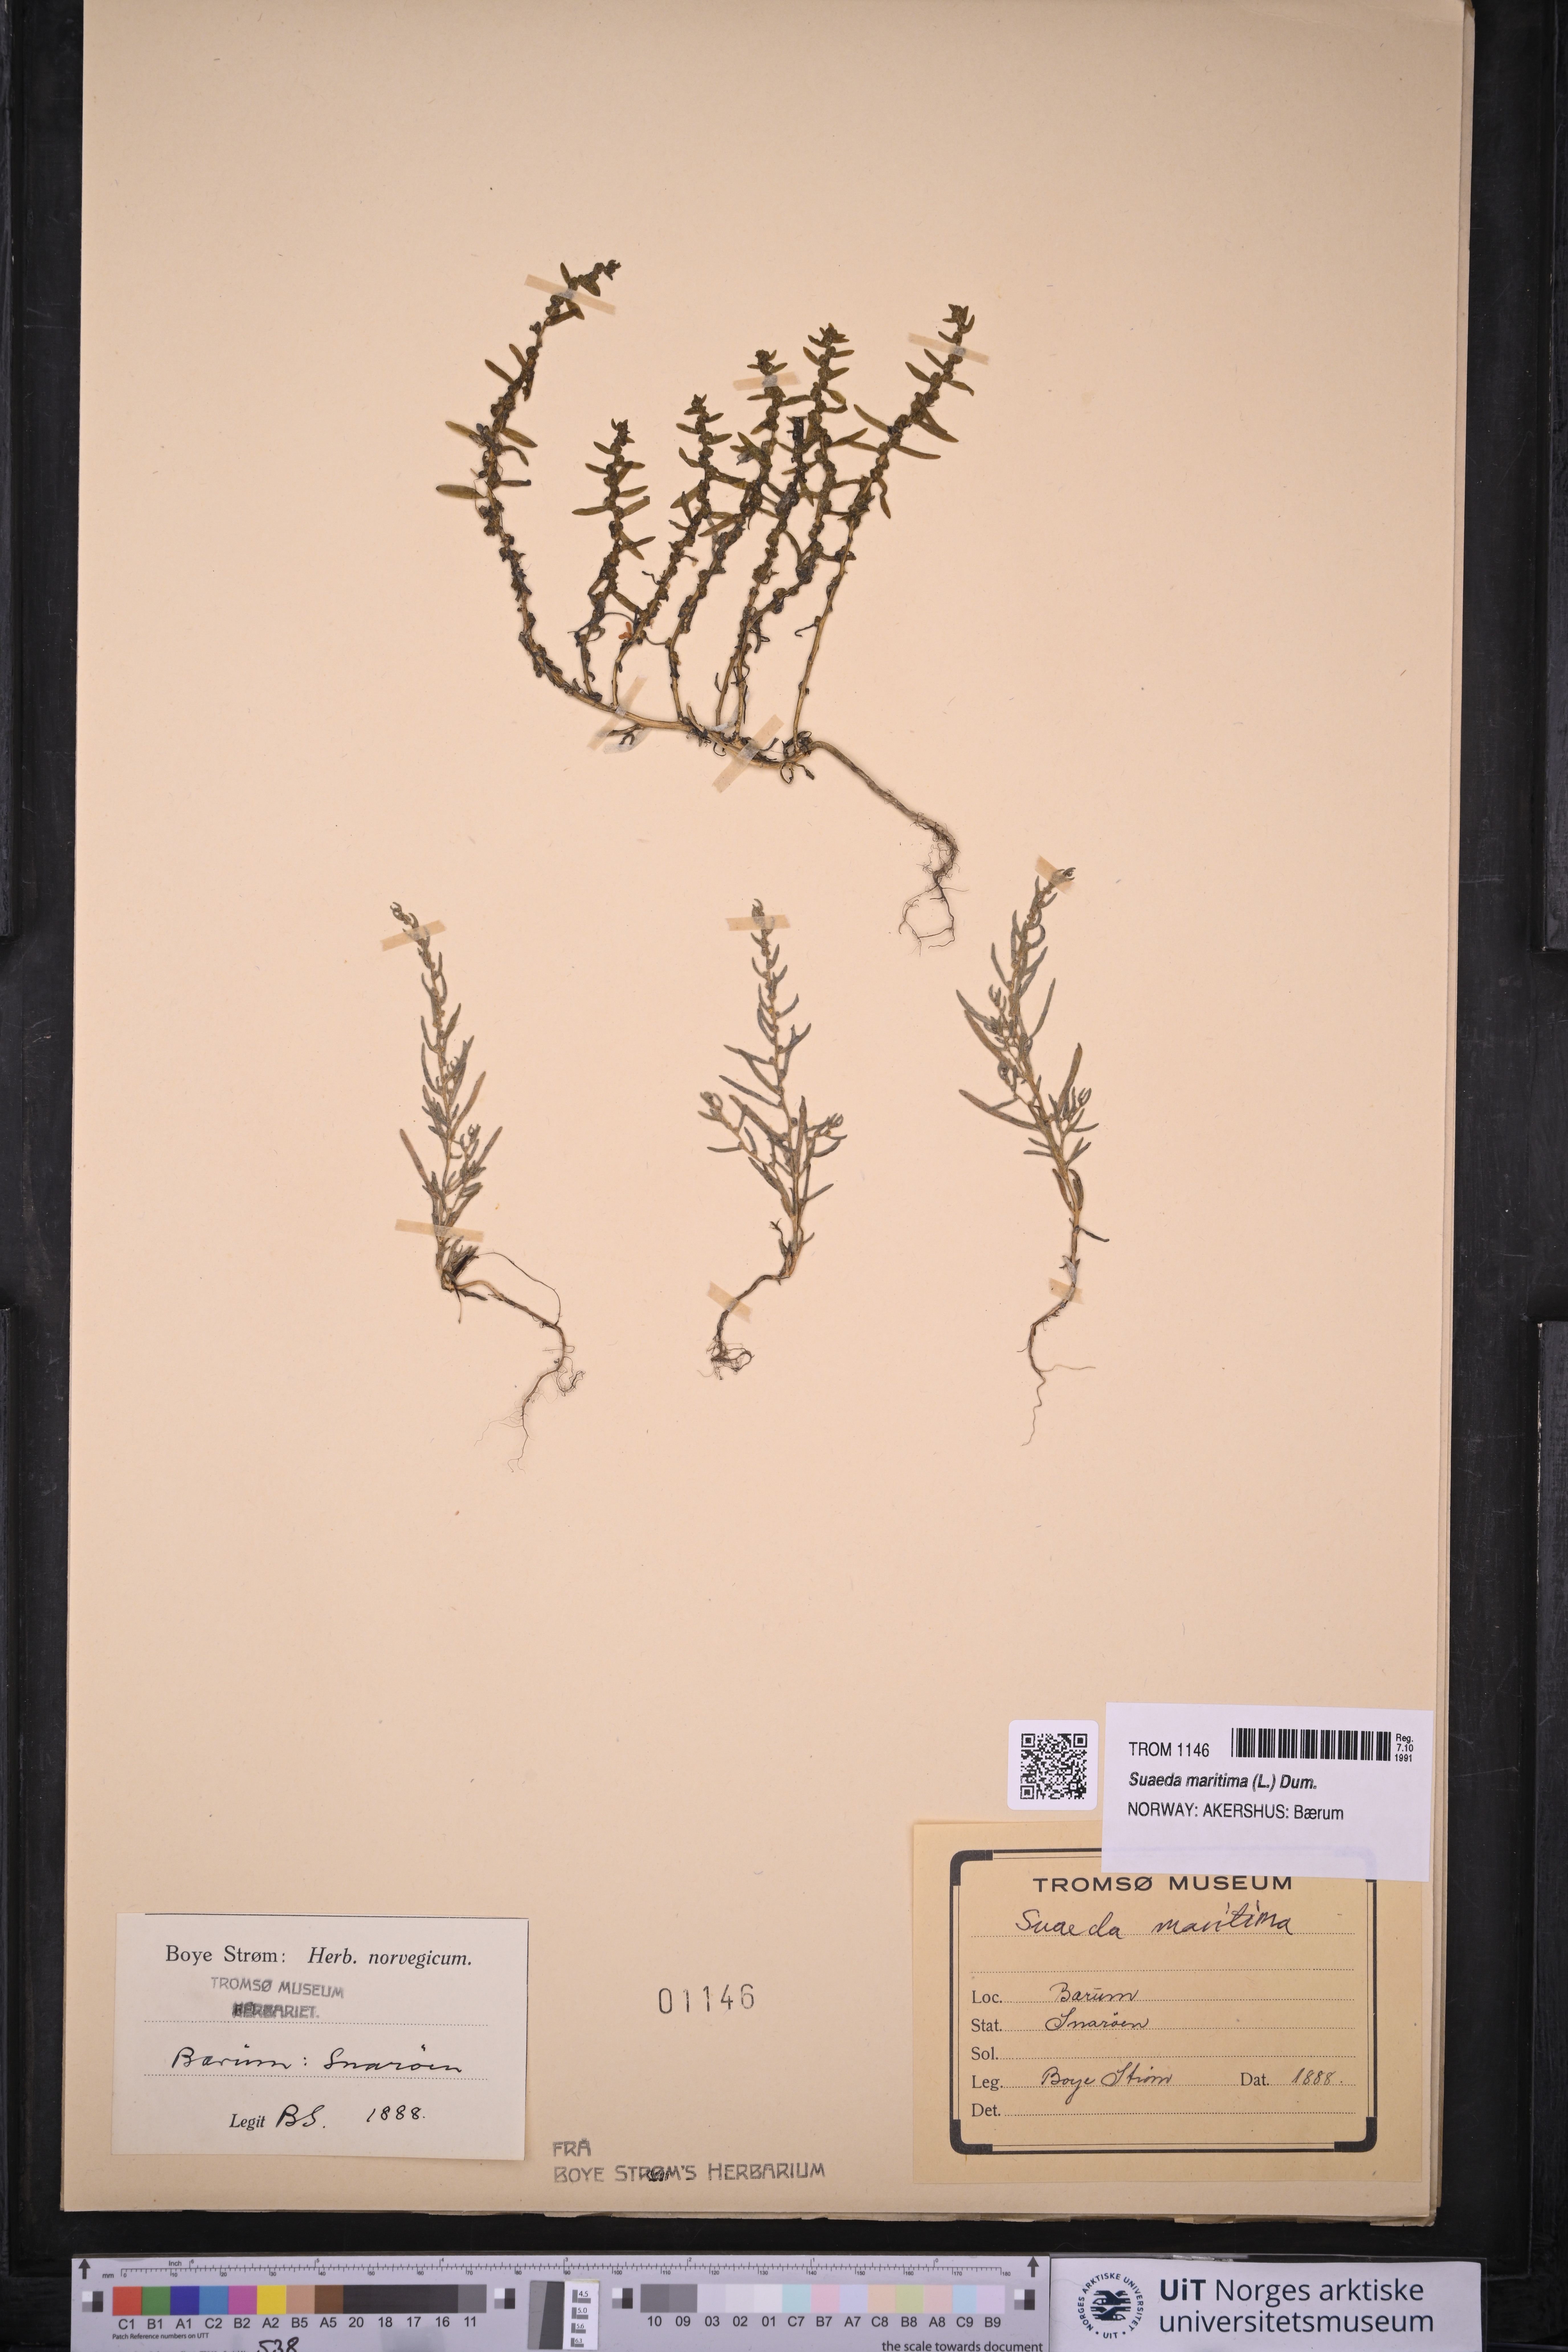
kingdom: Plantae
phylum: Tracheophyta
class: Magnoliopsida
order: Caryophyllales
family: Amaranthaceae
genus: Suaeda
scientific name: Suaeda maritima
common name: Annual sea-blite
